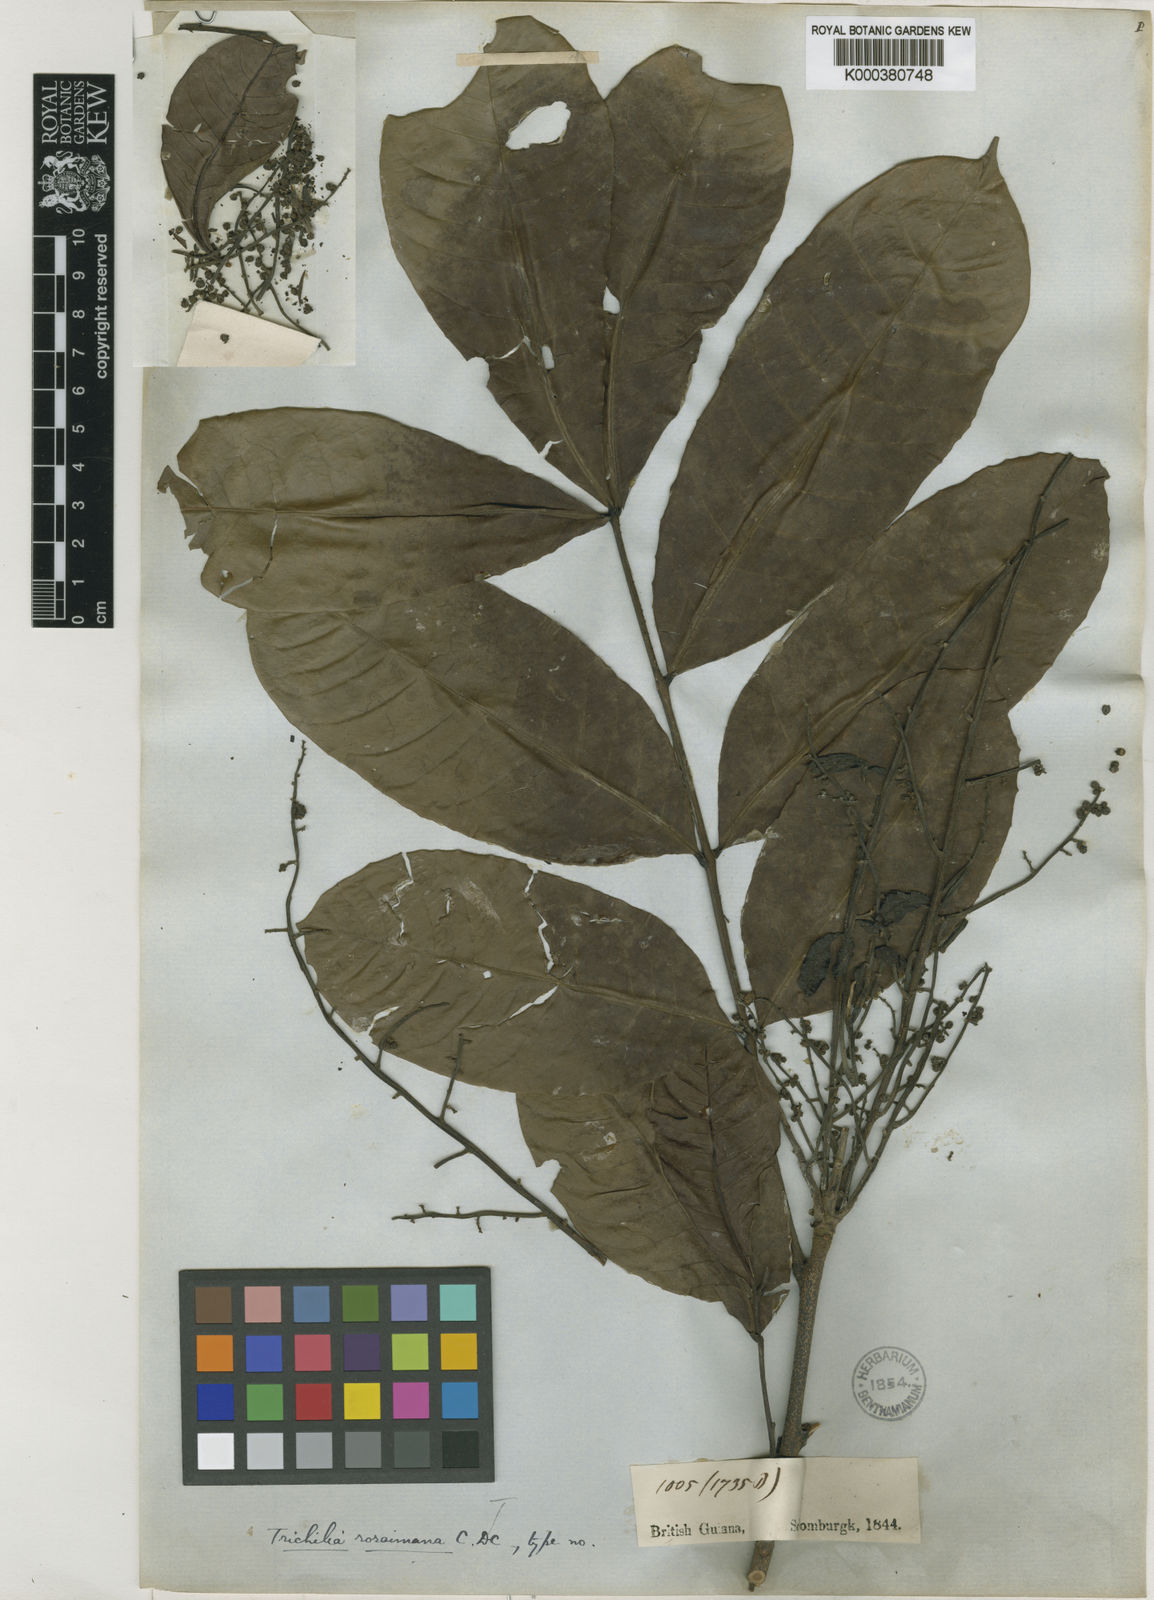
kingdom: Plantae
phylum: Tracheophyta
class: Magnoliopsida
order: Sapindales
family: Meliaceae
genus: Trichilia
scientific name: Trichilia micrantha
